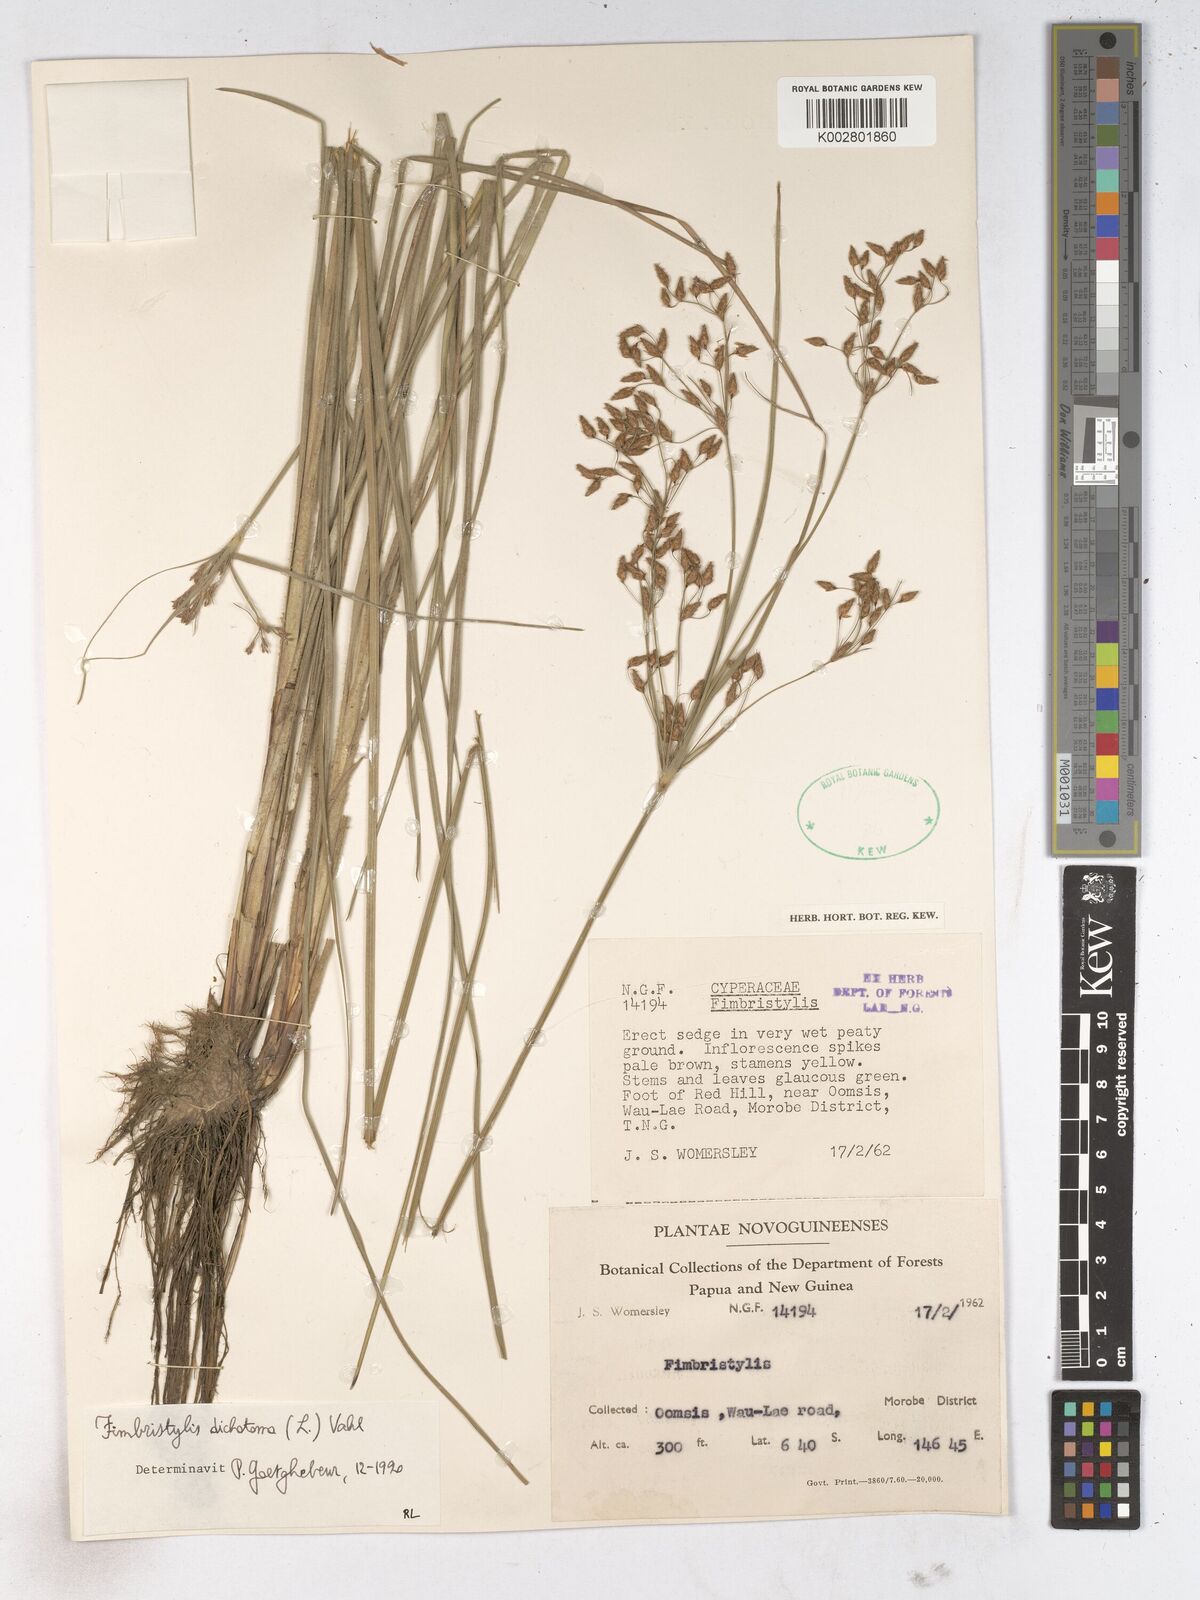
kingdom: Plantae
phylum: Tracheophyta
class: Liliopsida
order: Poales
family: Cyperaceae
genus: Fimbristylis
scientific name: Fimbristylis dichotoma
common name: Forked fimbry
